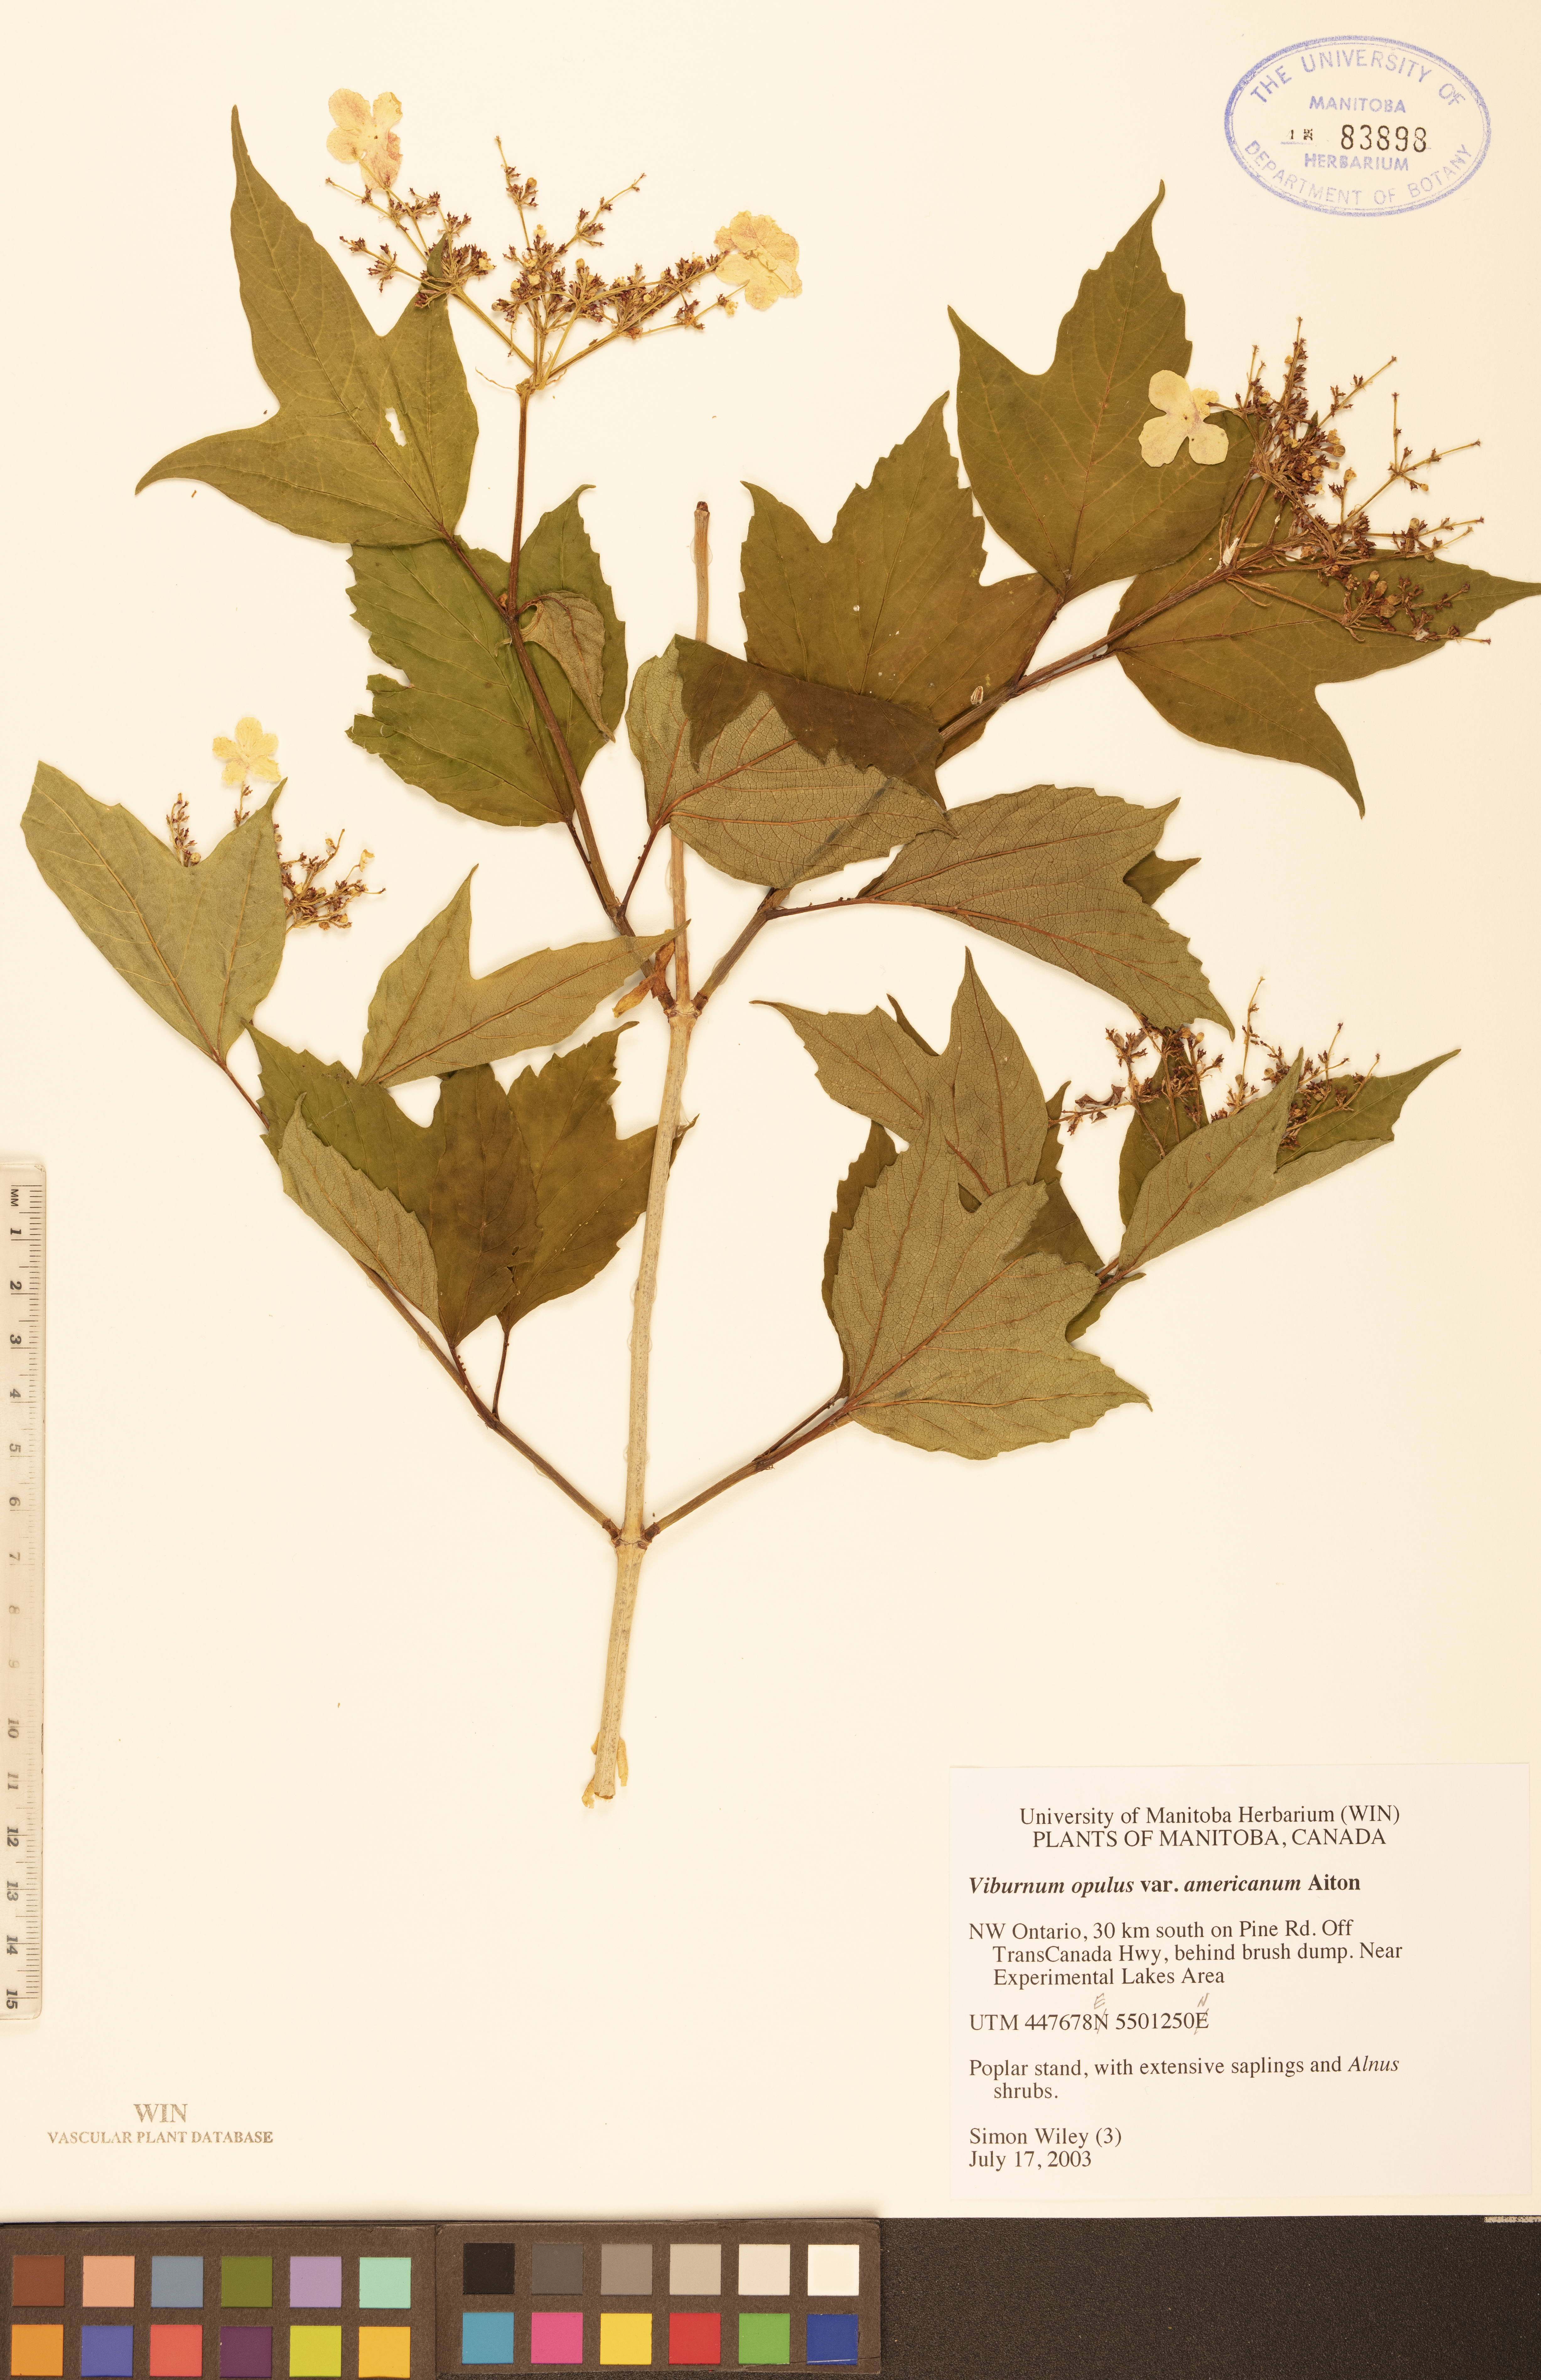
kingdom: Plantae
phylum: Tracheophyta
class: Magnoliopsida
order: Dipsacales
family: Viburnaceae
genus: Viburnum
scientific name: Viburnum trilobum
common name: American cranberrybush
